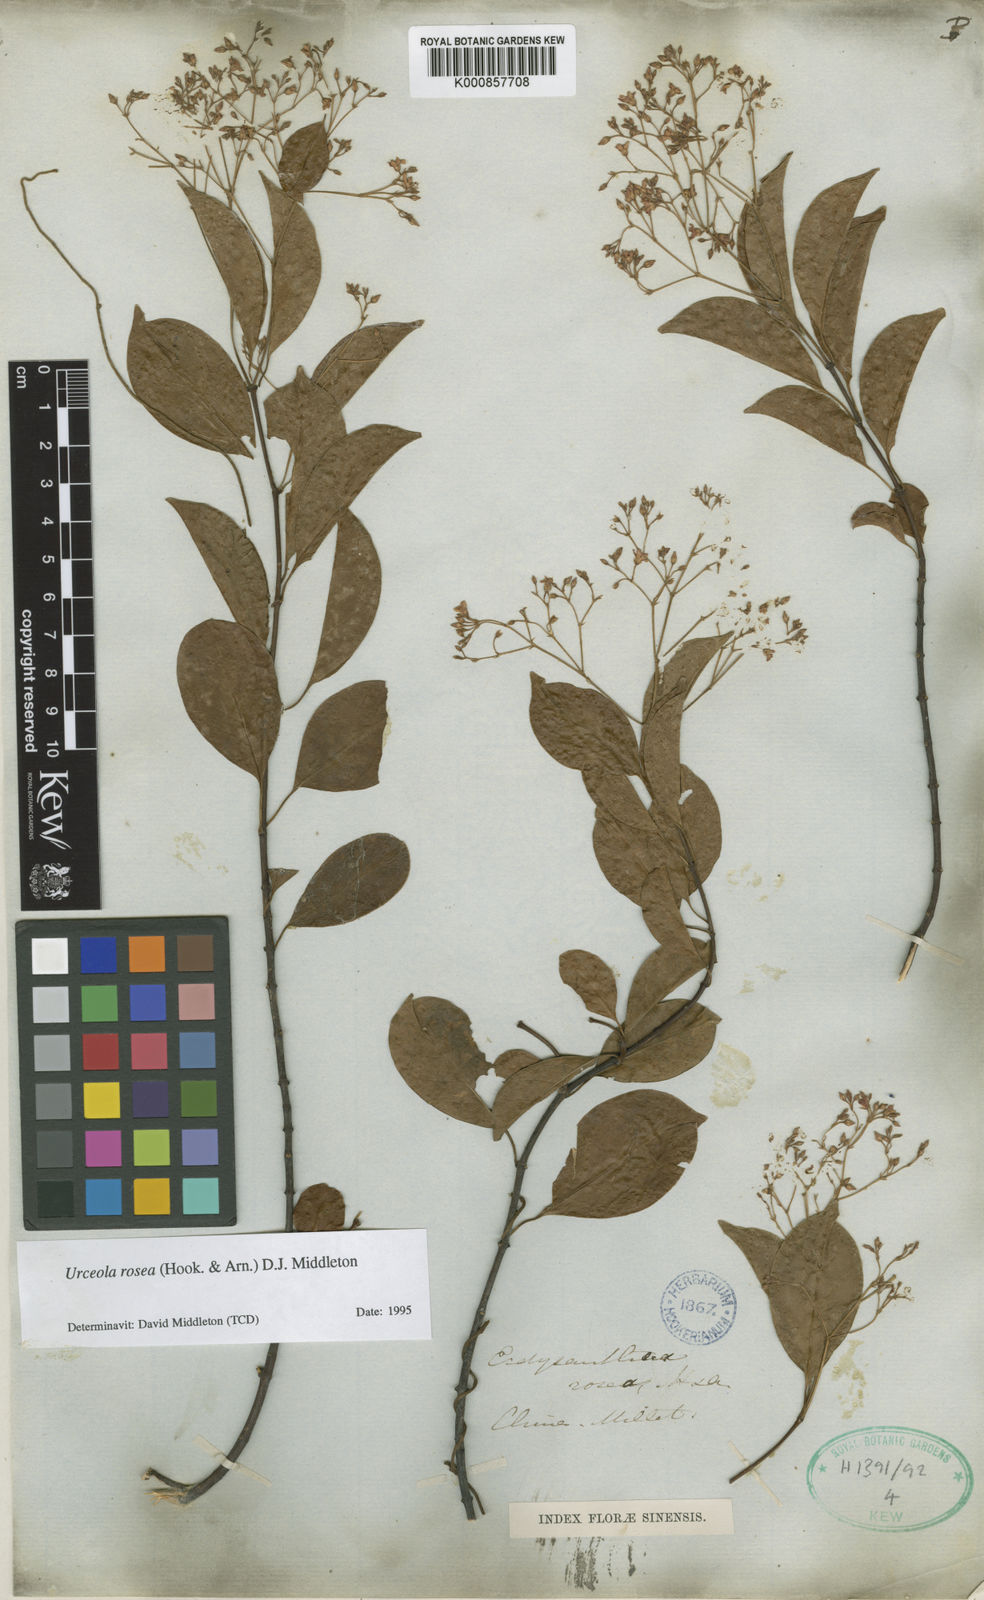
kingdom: Plantae
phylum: Tracheophyta
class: Magnoliopsida
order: Gentianales
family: Apocynaceae
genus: Urceola
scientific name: Urceola rosea
